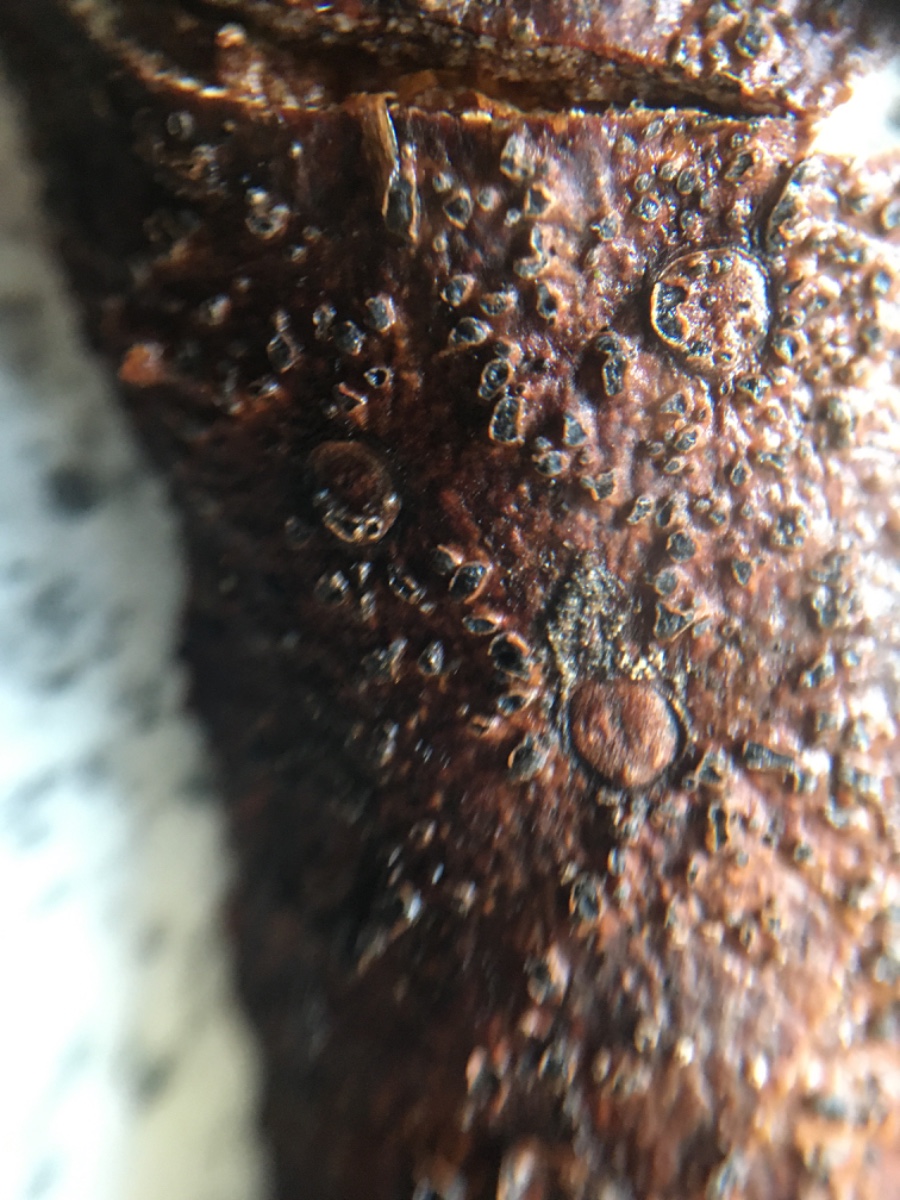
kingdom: Fungi
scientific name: Fungi
